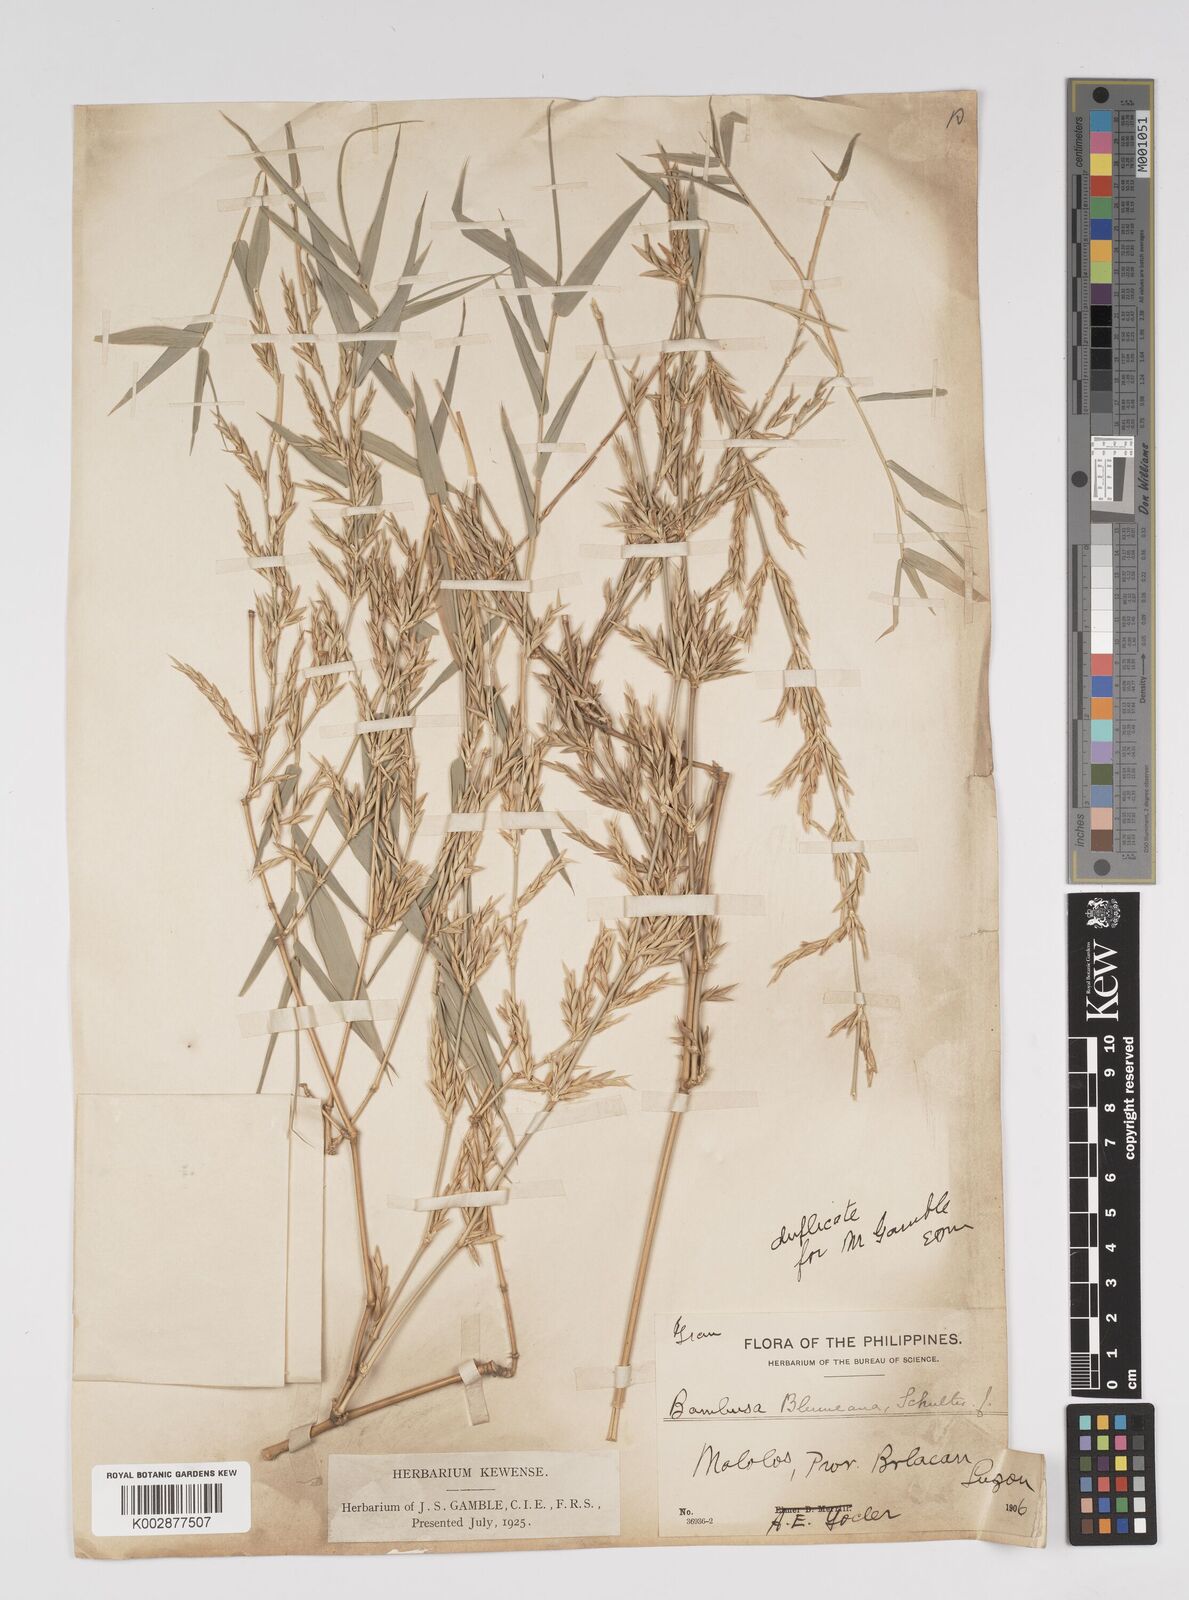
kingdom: Plantae
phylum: Tracheophyta
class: Liliopsida
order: Poales
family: Poaceae
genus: Bambusa
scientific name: Bambusa spinosa
